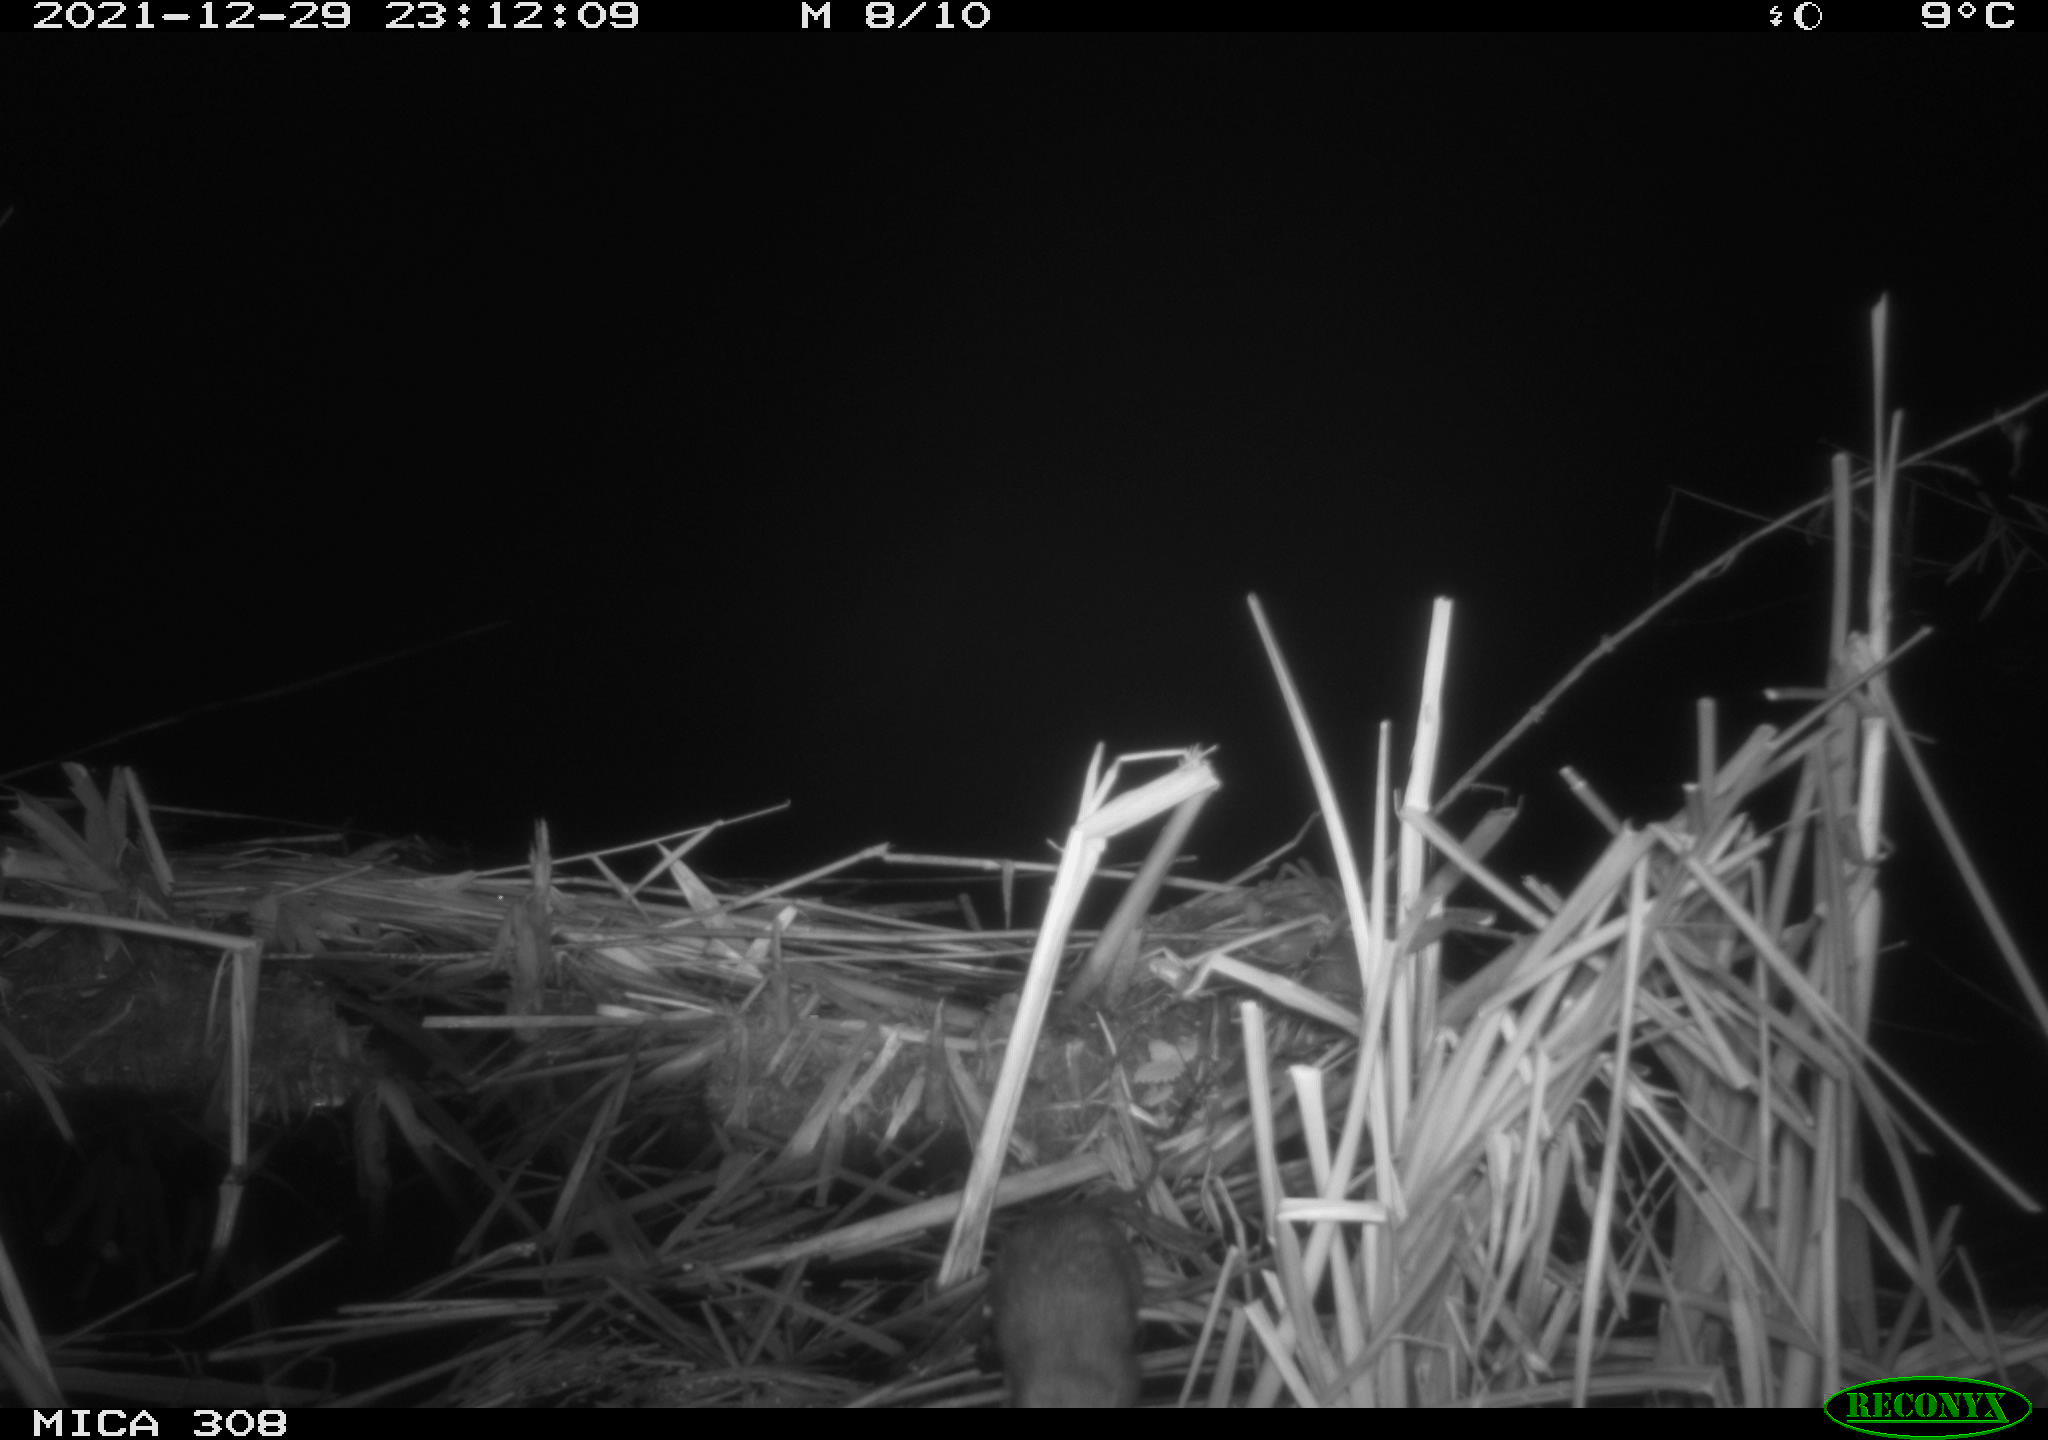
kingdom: Animalia
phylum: Chordata
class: Mammalia
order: Rodentia
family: Muridae
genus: Rattus
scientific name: Rattus norvegicus
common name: Brown rat
